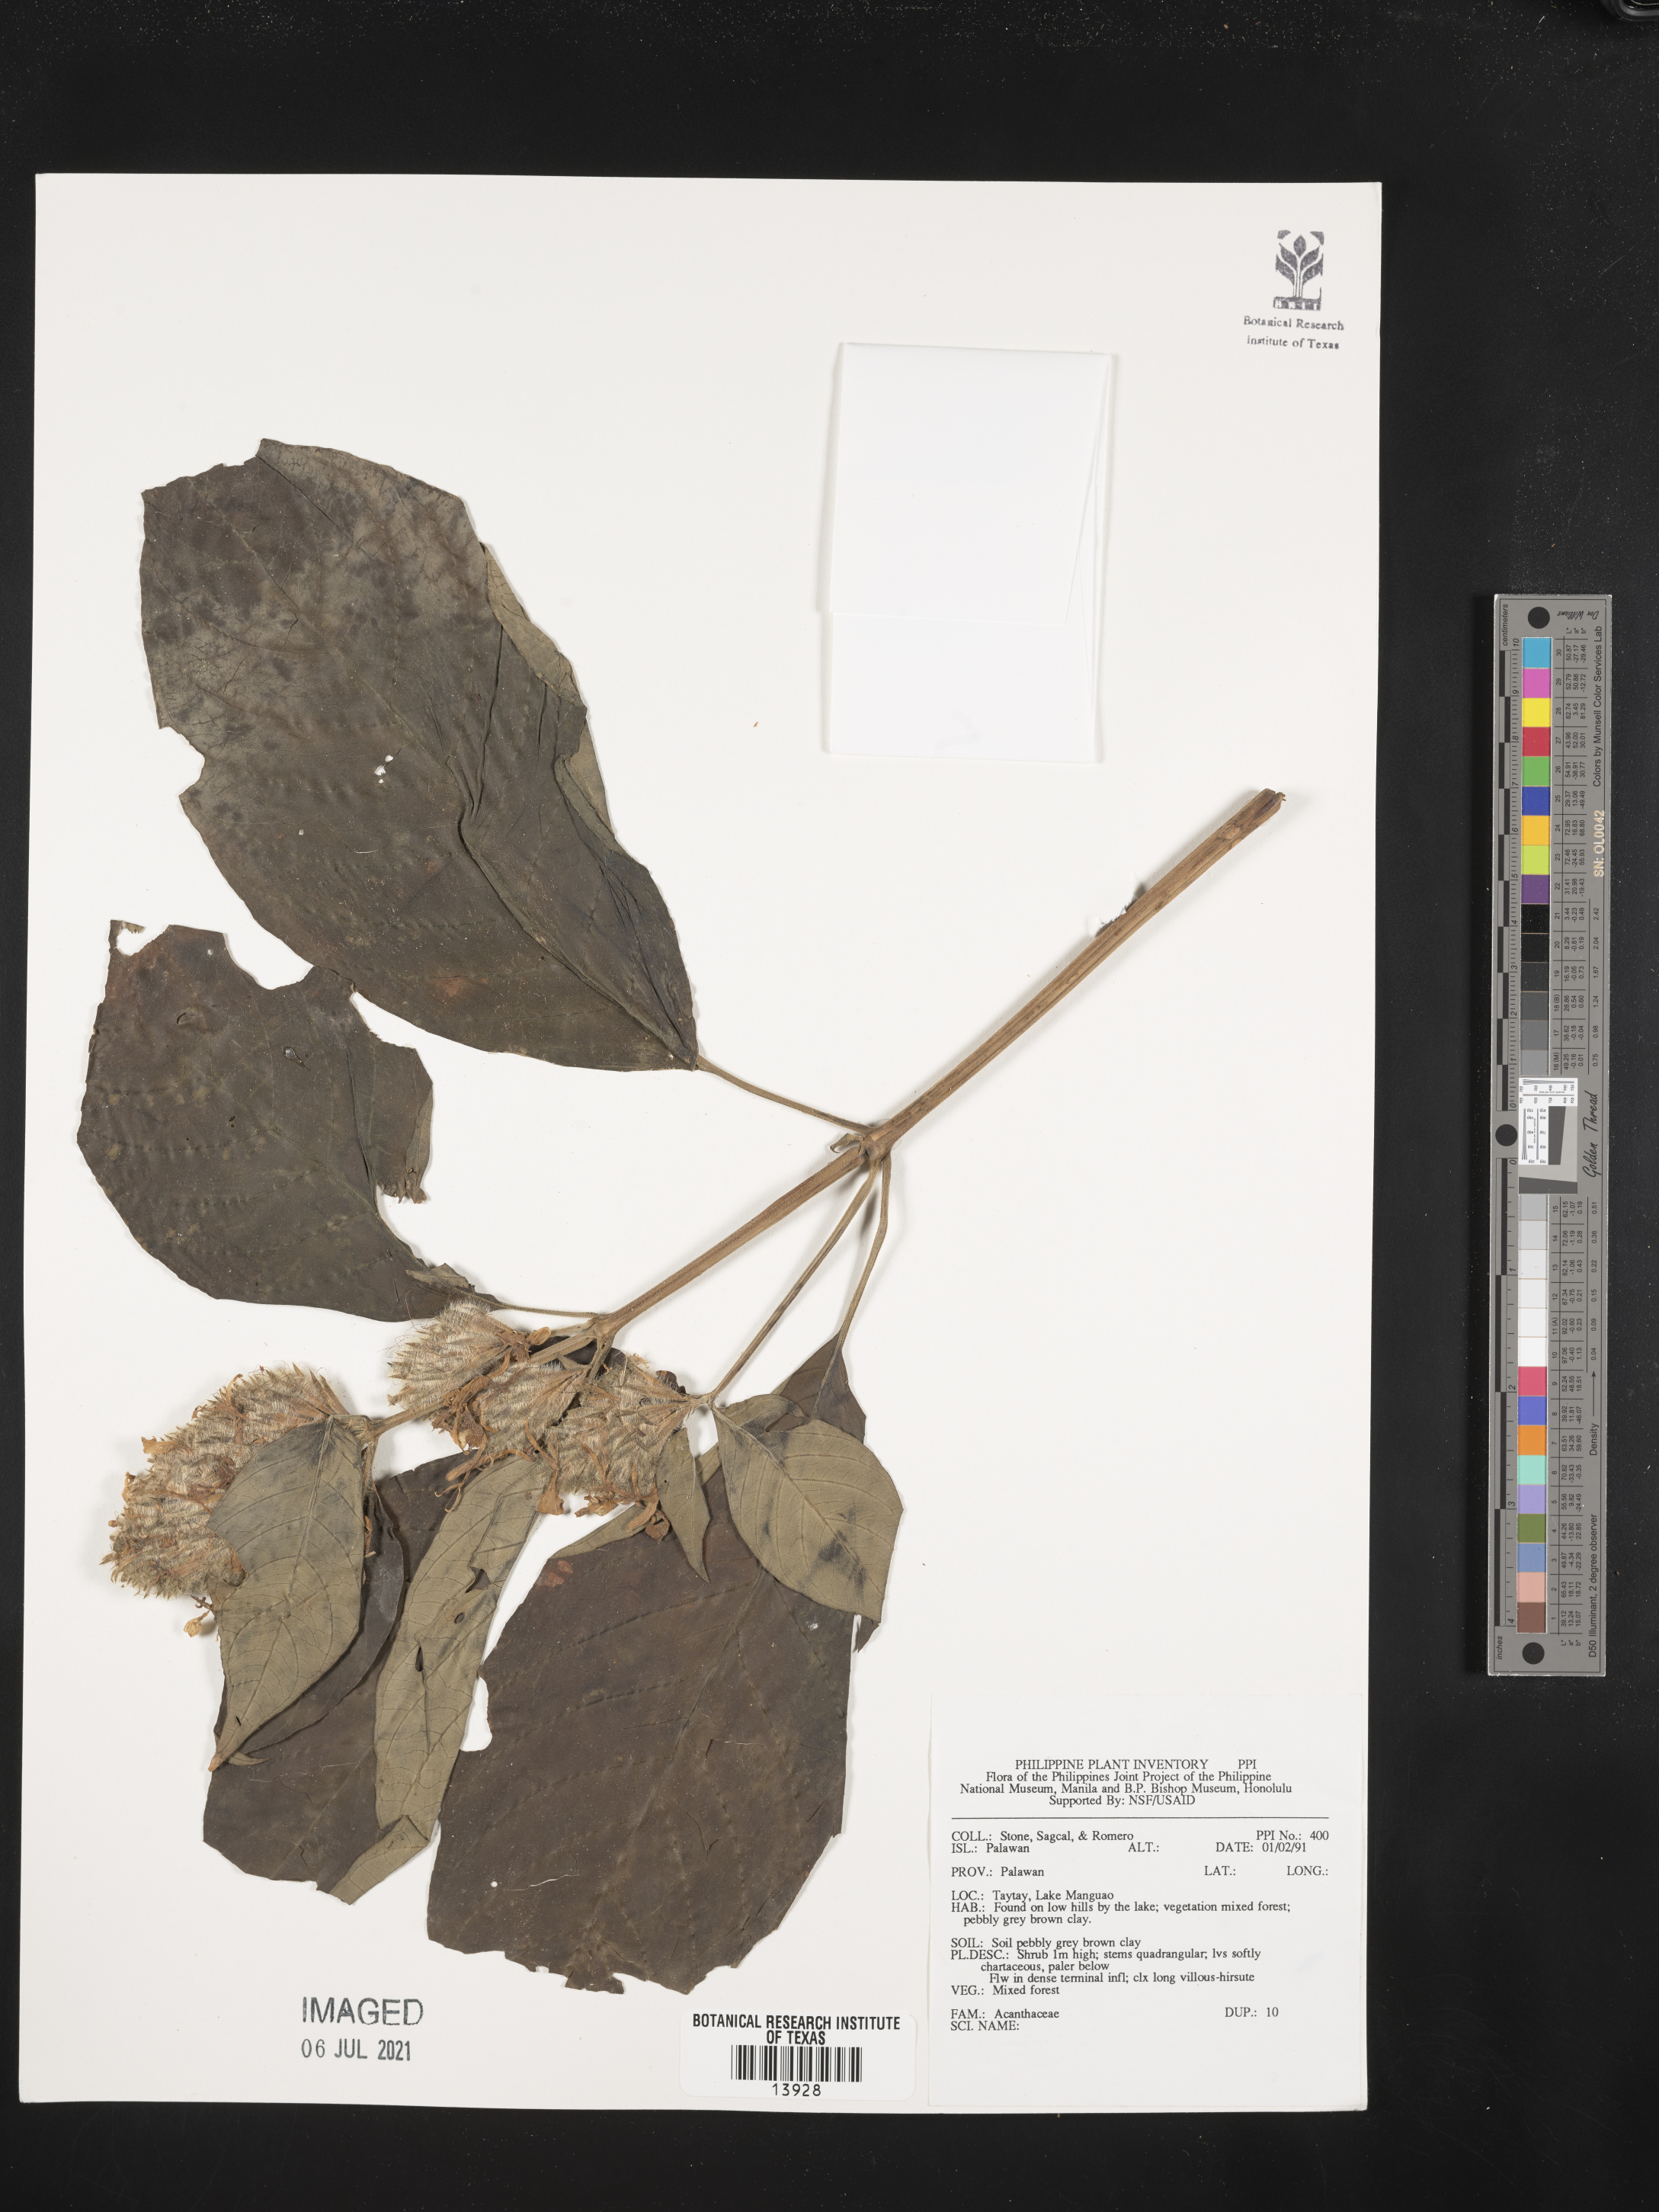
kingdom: Plantae
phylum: Tracheophyta
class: Magnoliopsida
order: Lamiales
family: Acanthaceae
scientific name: Acanthaceae
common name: Acanthaceae
